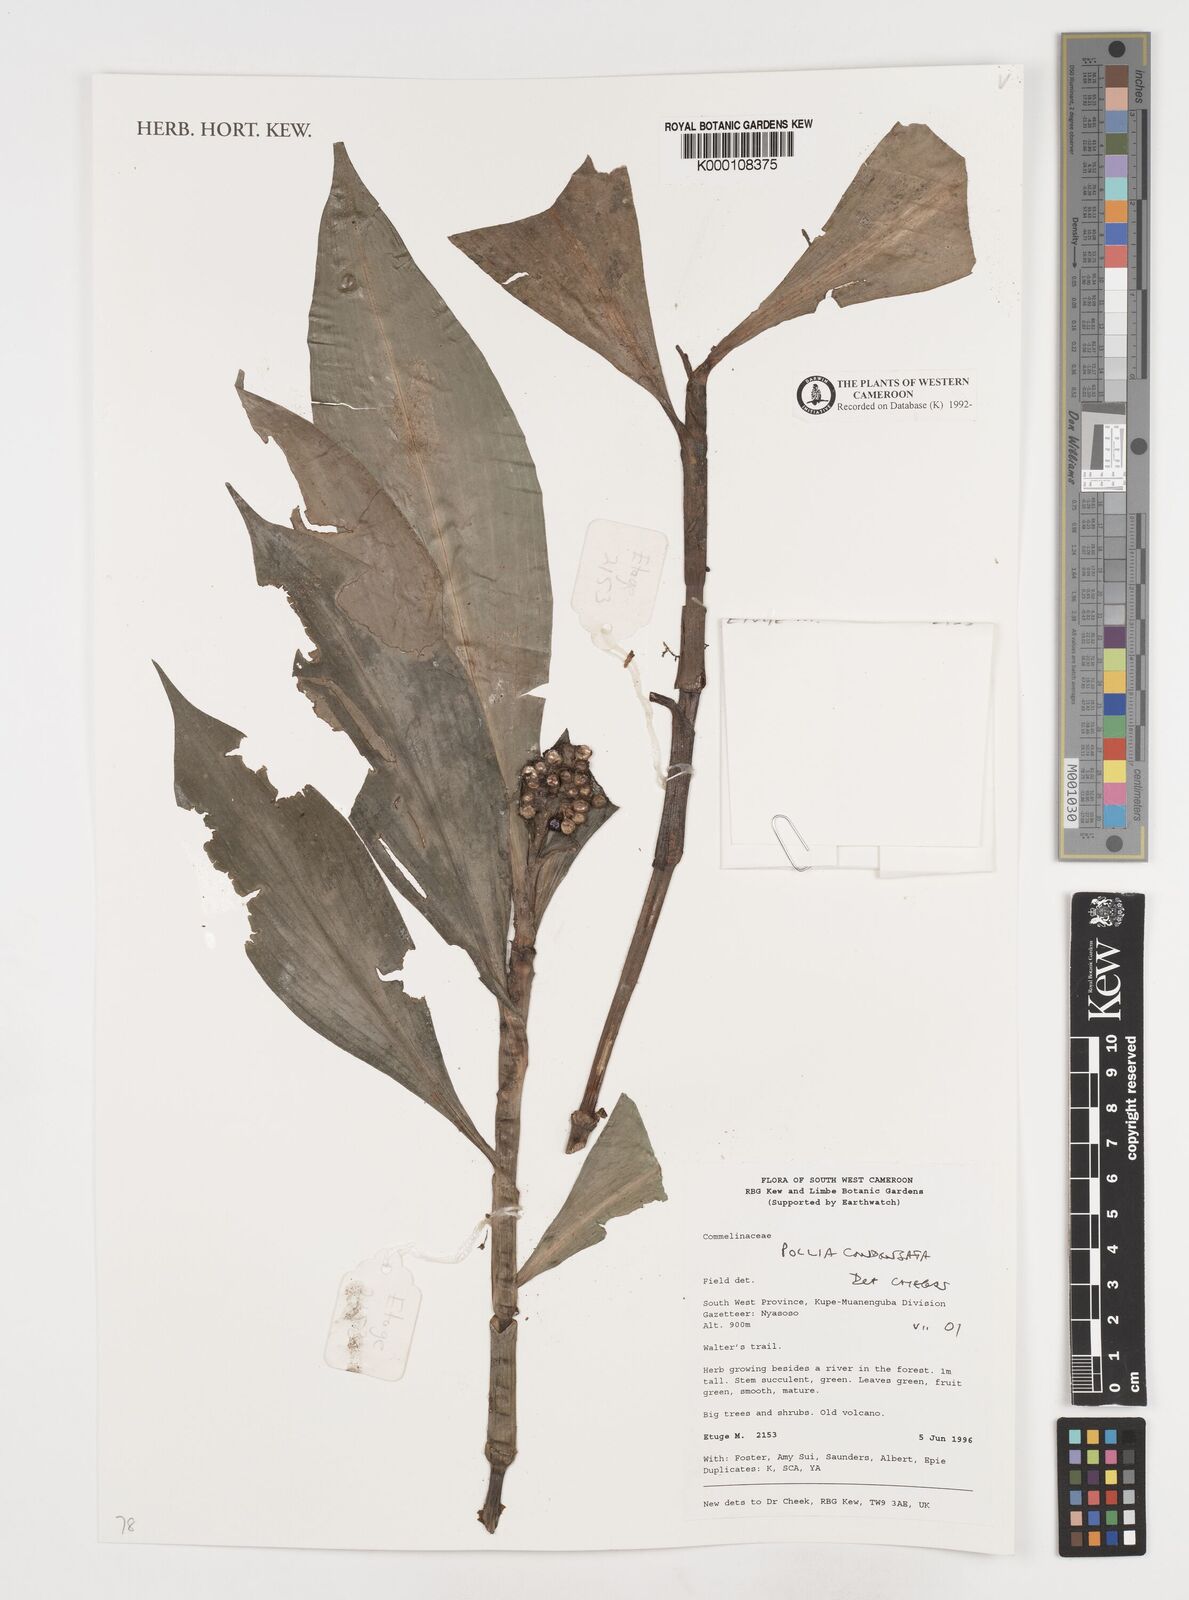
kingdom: Plantae
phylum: Tracheophyta
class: Liliopsida
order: Commelinales
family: Commelinaceae
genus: Pollia
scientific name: Pollia condensata
